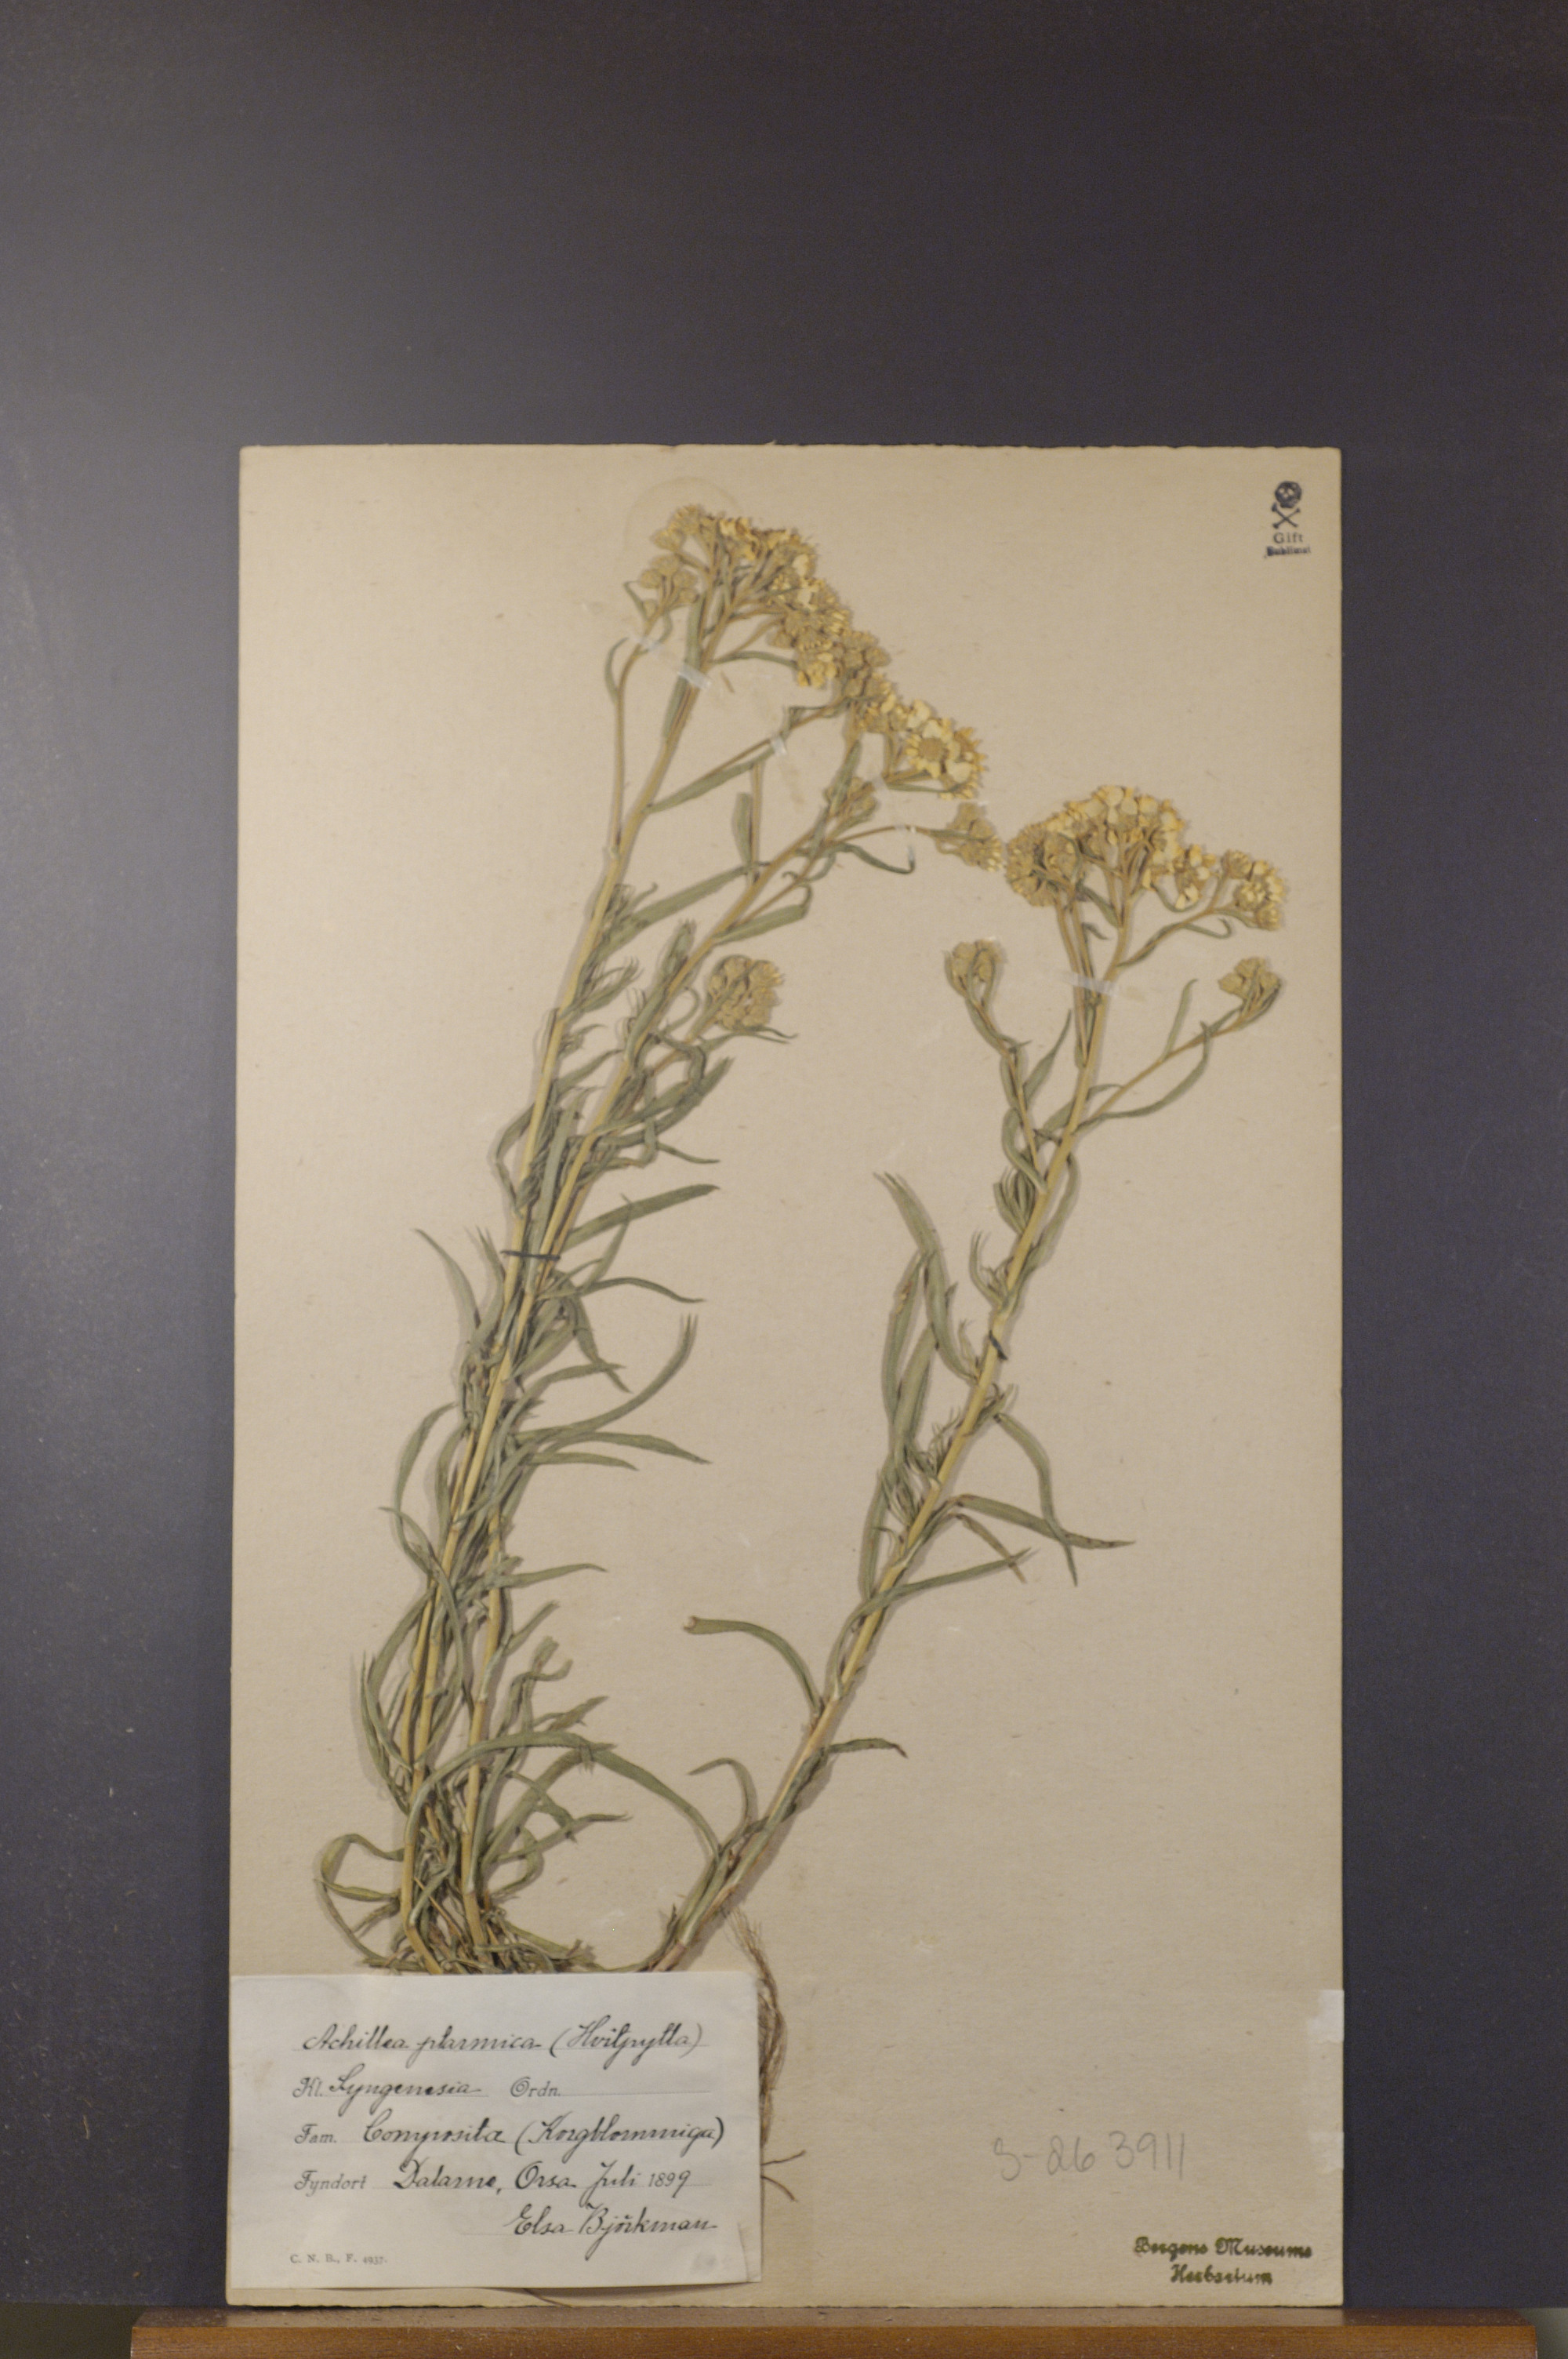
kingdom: Plantae
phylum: Tracheophyta
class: Magnoliopsida
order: Asterales
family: Asteraceae
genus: Achillea
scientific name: Achillea ptarmica
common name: Sneezeweed
